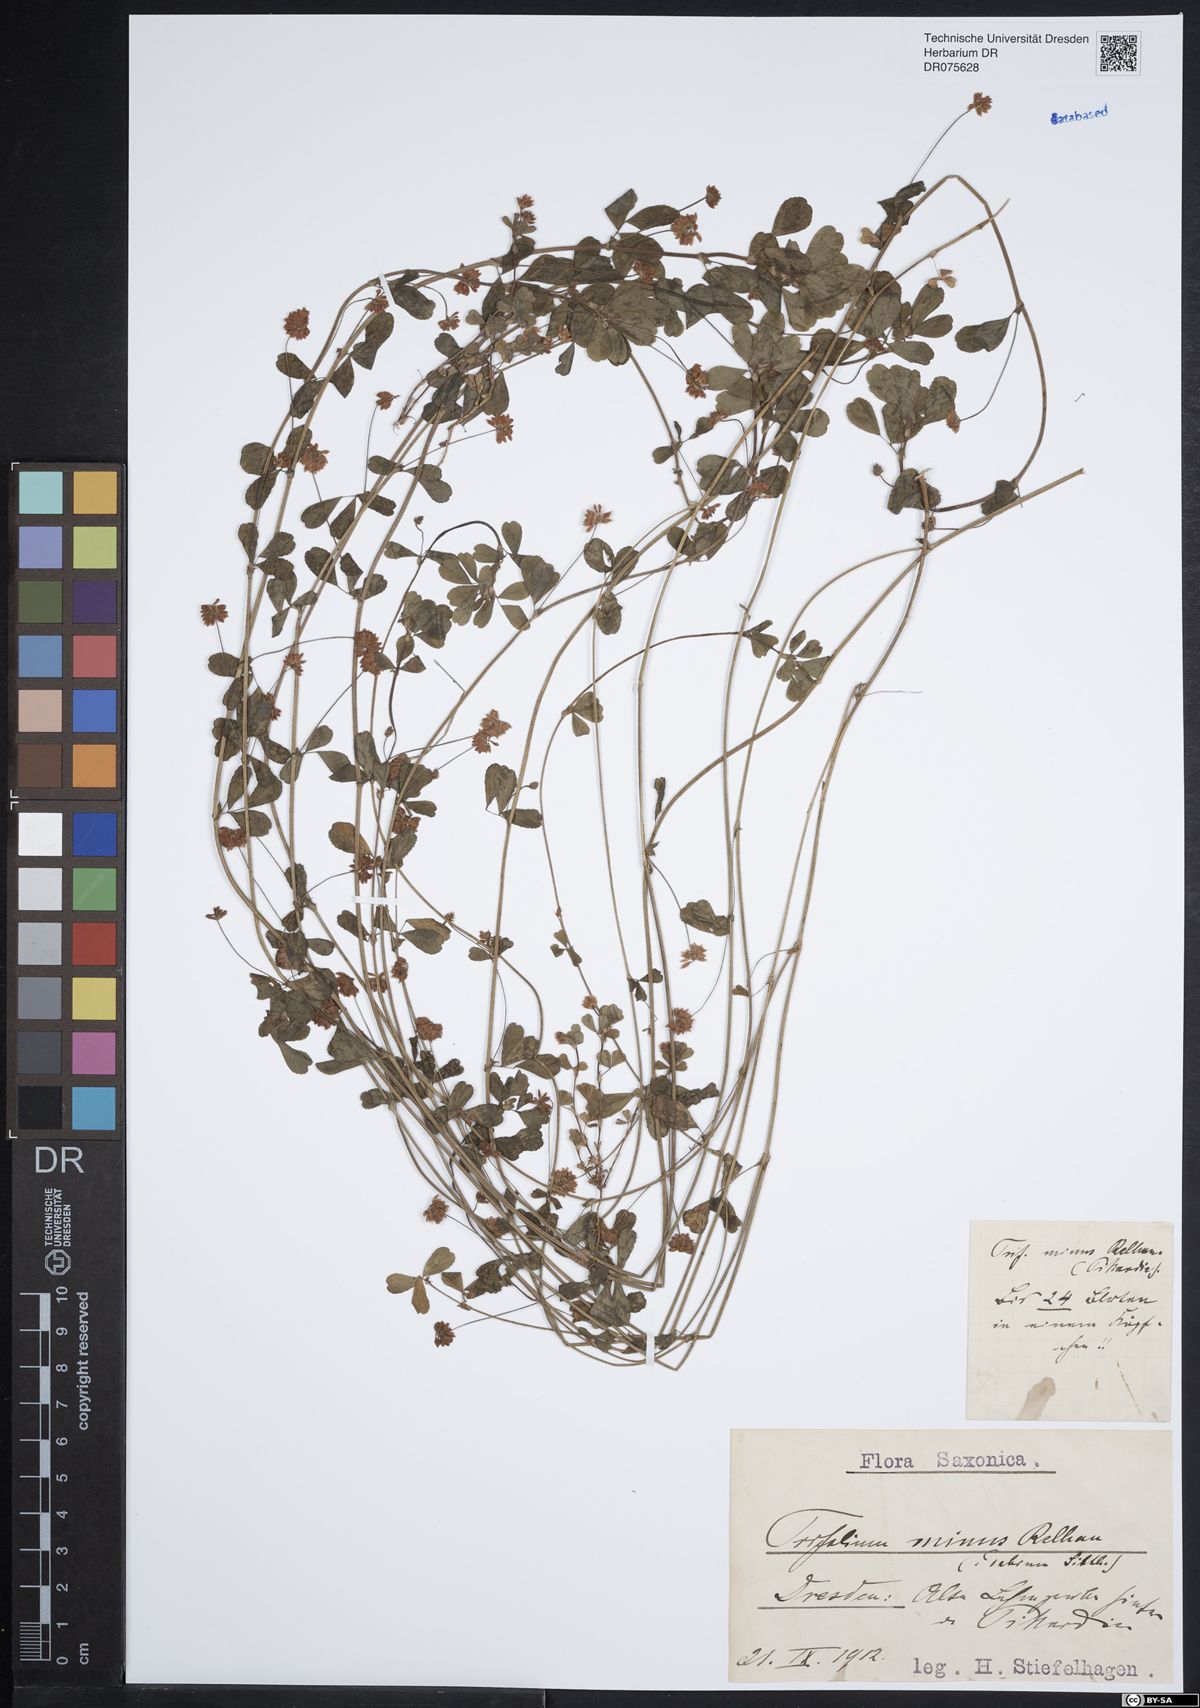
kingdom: Plantae
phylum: Tracheophyta
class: Magnoliopsida
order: Fabales
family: Fabaceae
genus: Trifolium
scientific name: Trifolium dubium
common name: Suckling clover
